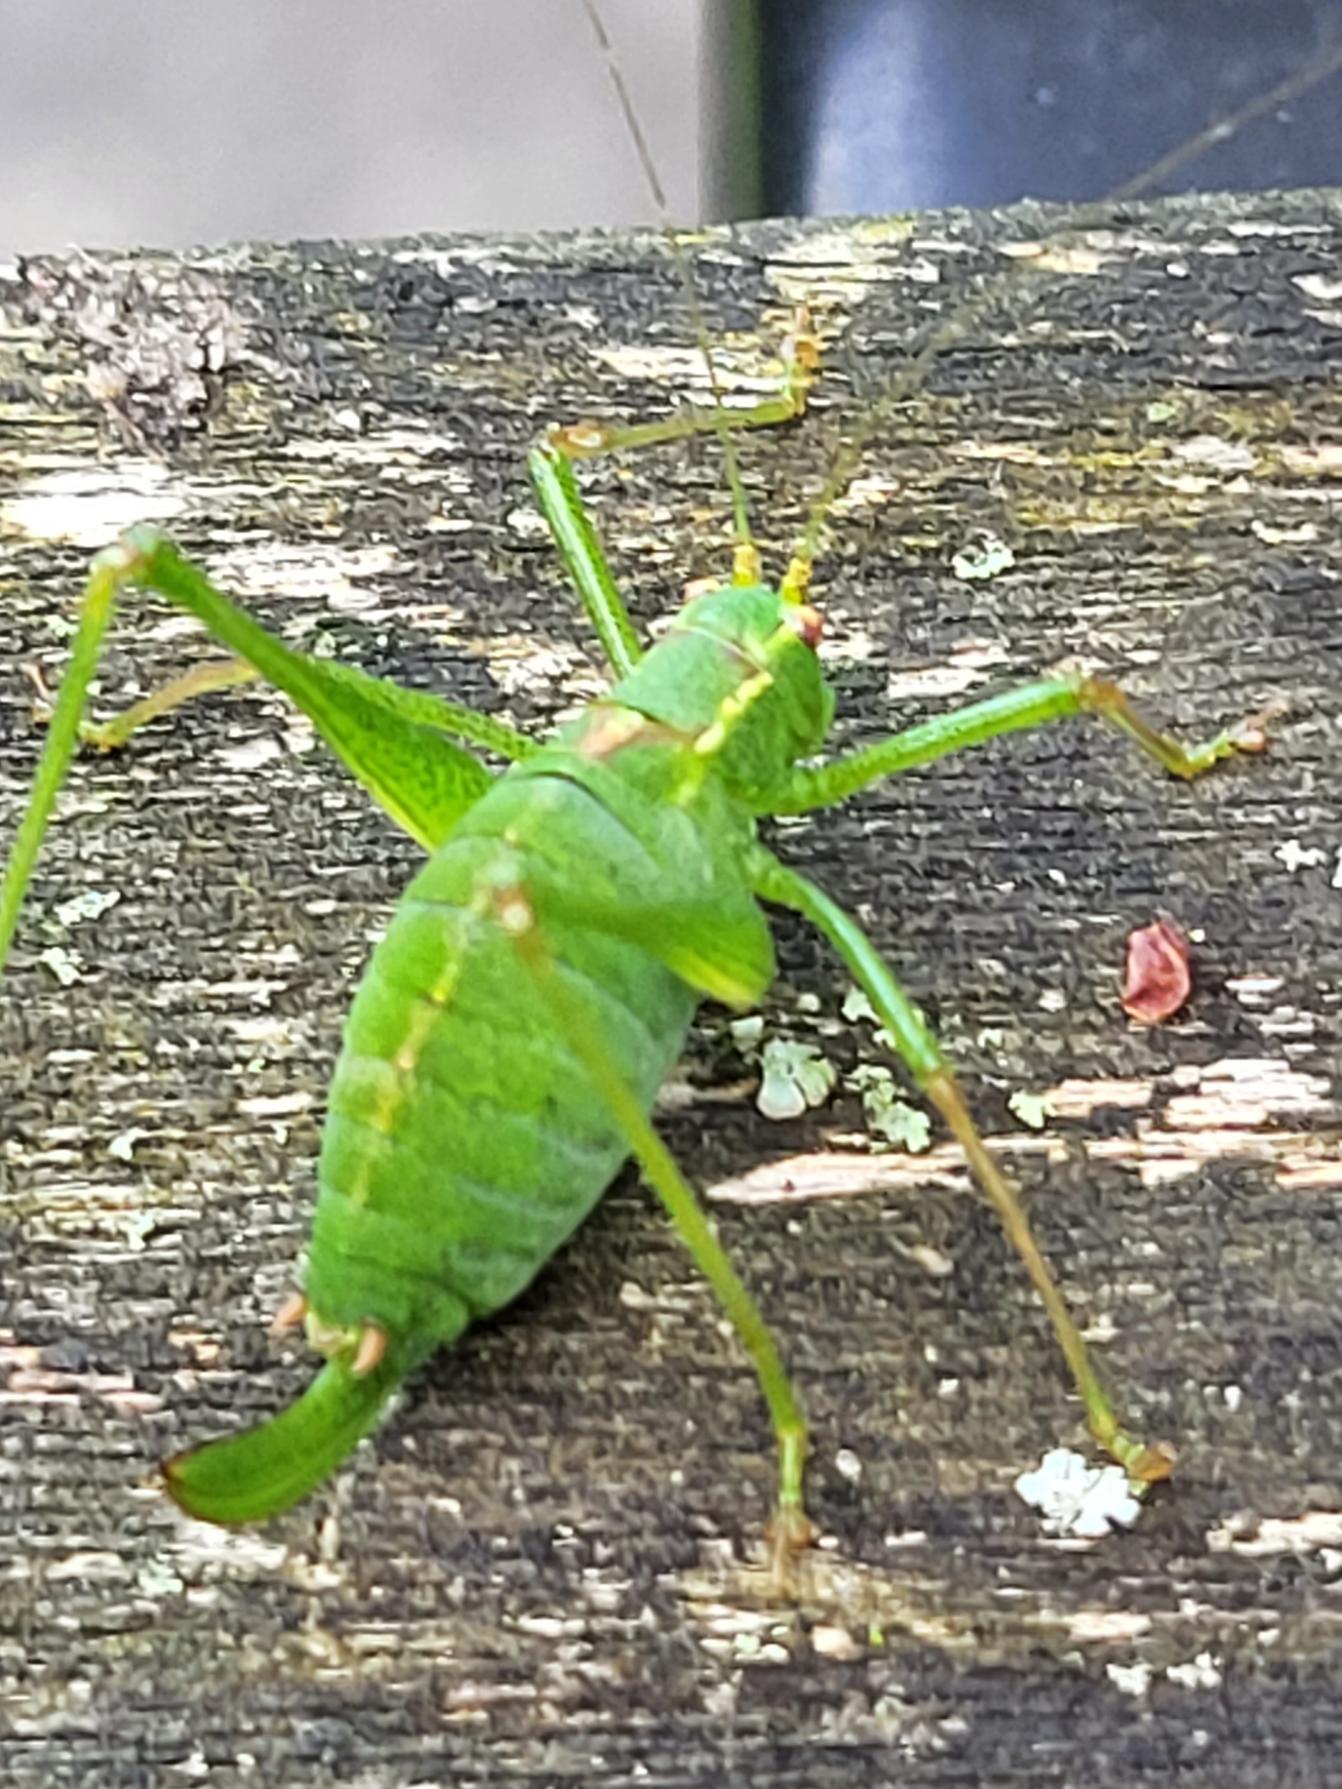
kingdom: Animalia
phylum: Arthropoda
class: Insecta
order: Orthoptera
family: Tettigoniidae
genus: Leptophyes
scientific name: Leptophyes punctatissima
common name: Krumknivgræshoppe
